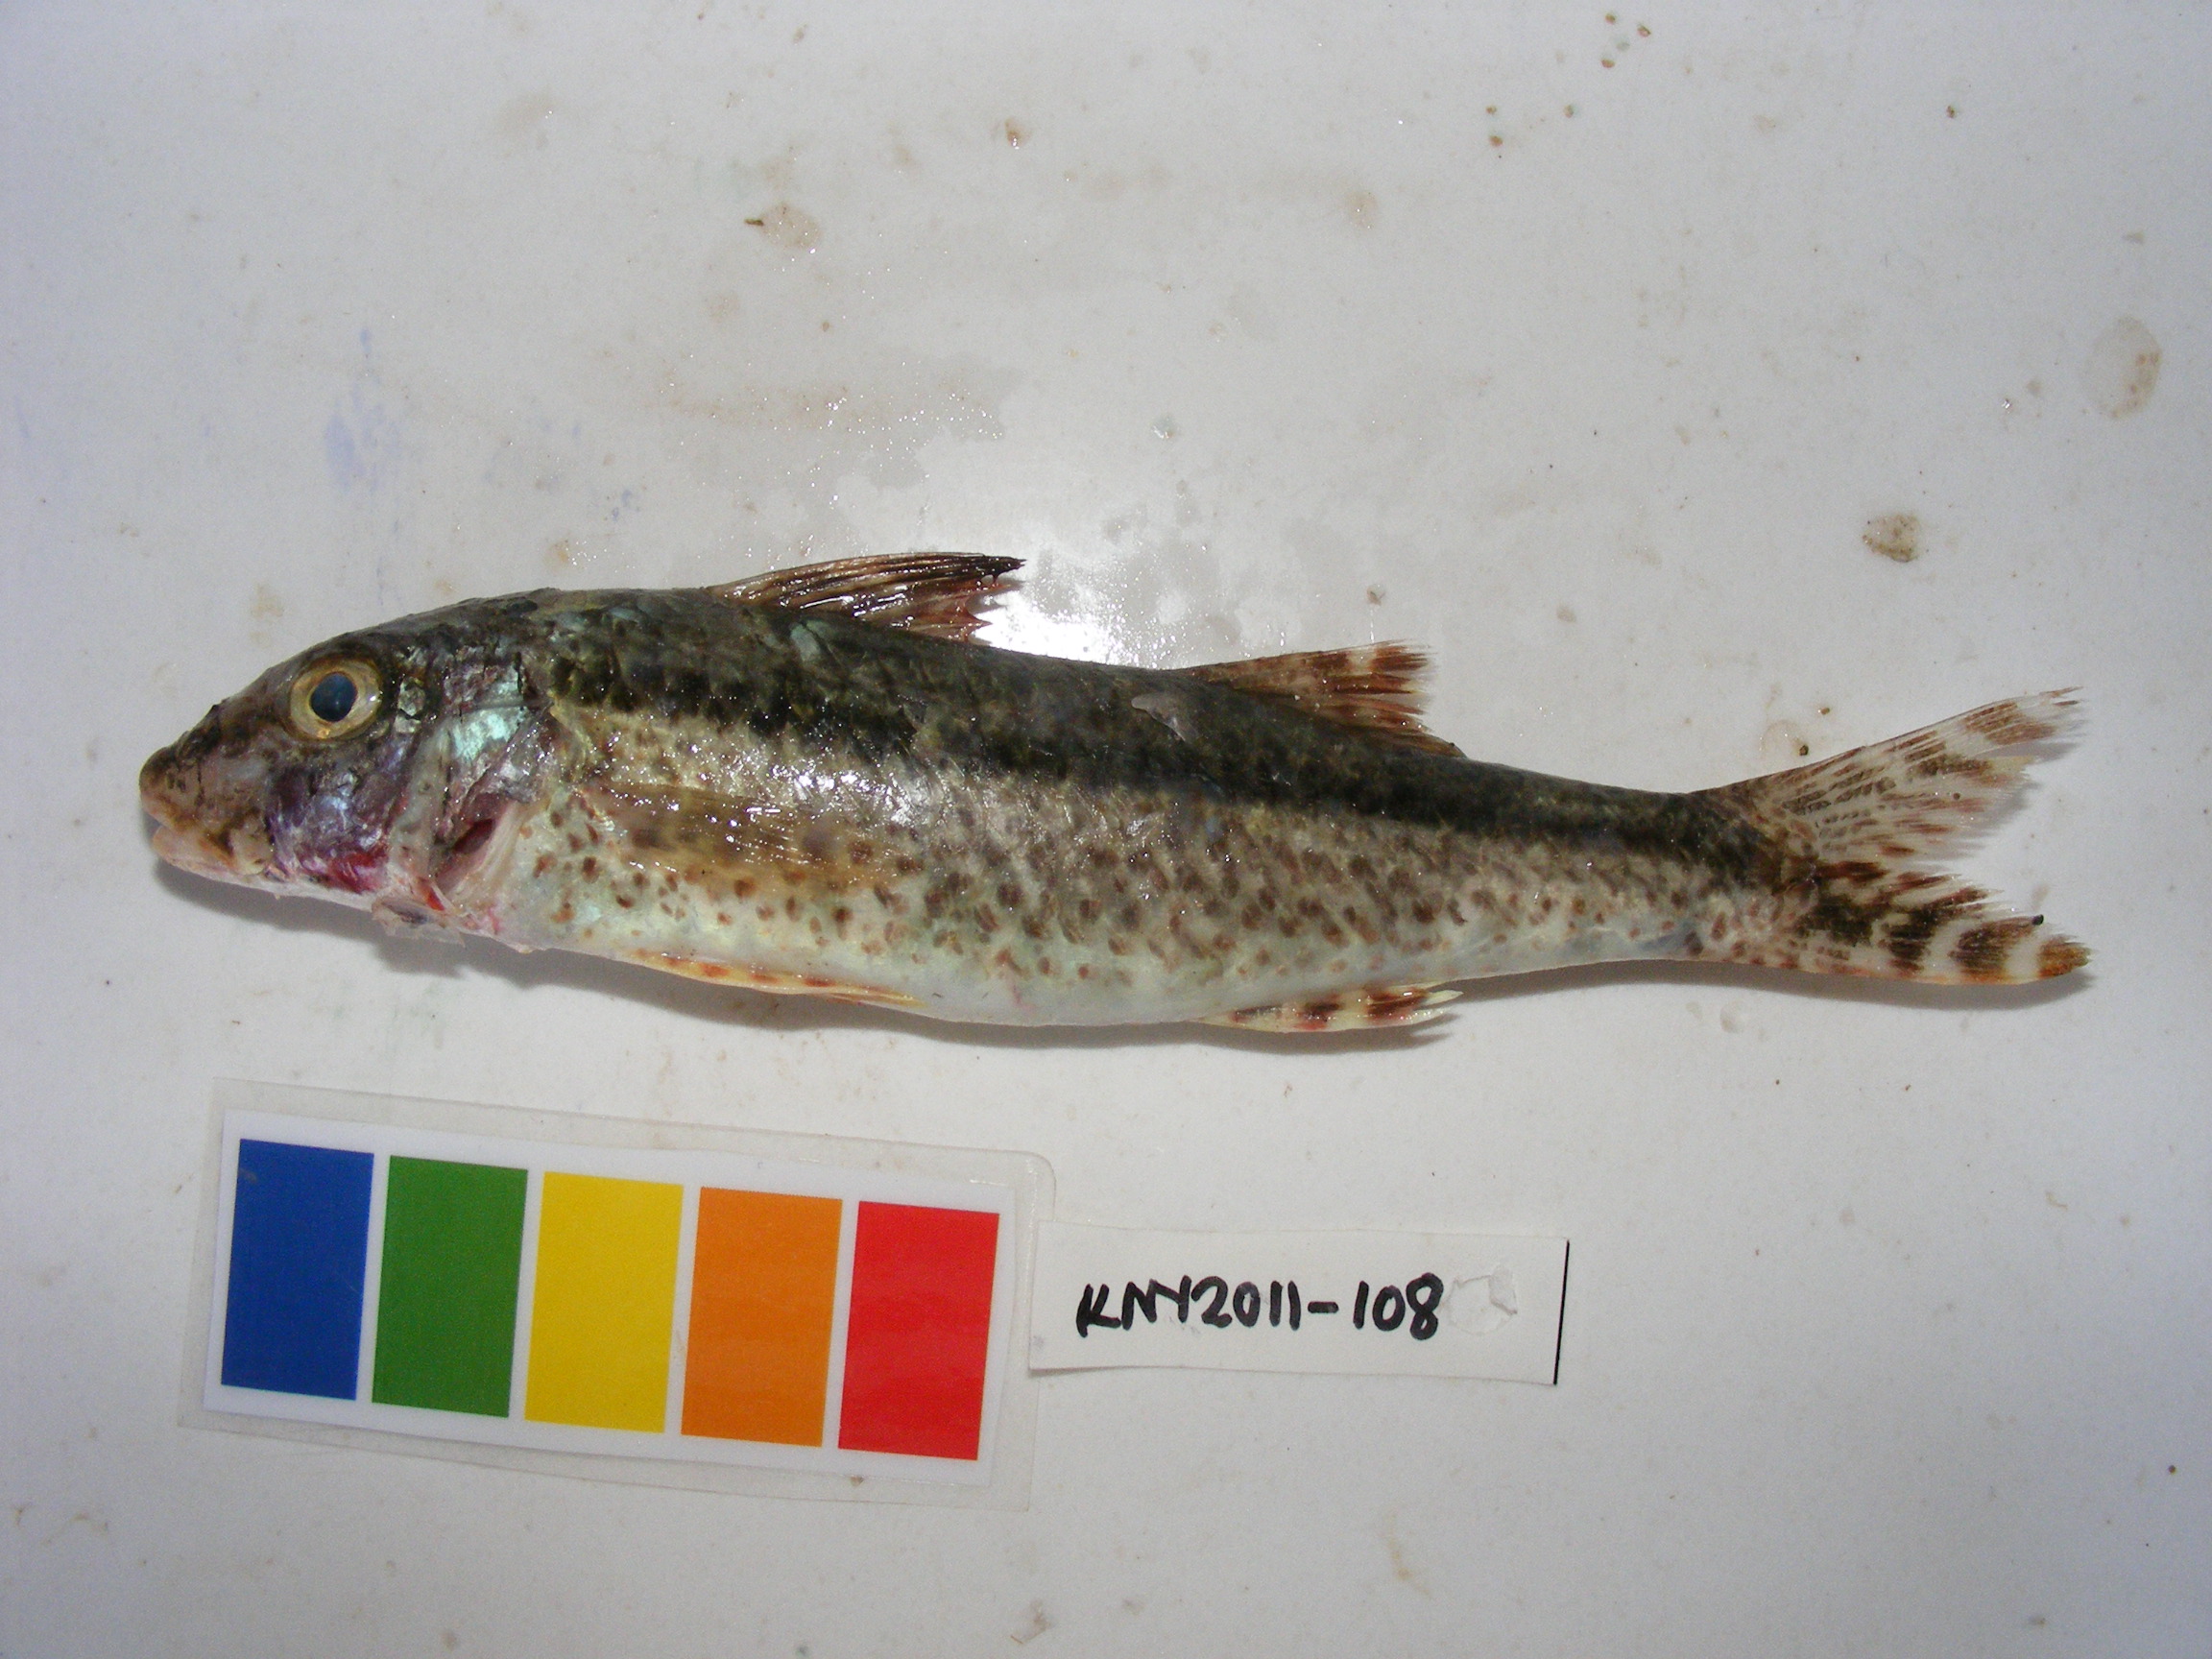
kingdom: Animalia
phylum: Chordata
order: Perciformes
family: Mullidae
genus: Upeneus
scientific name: Upeneus heemstra
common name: Heemstra’s goatfish
